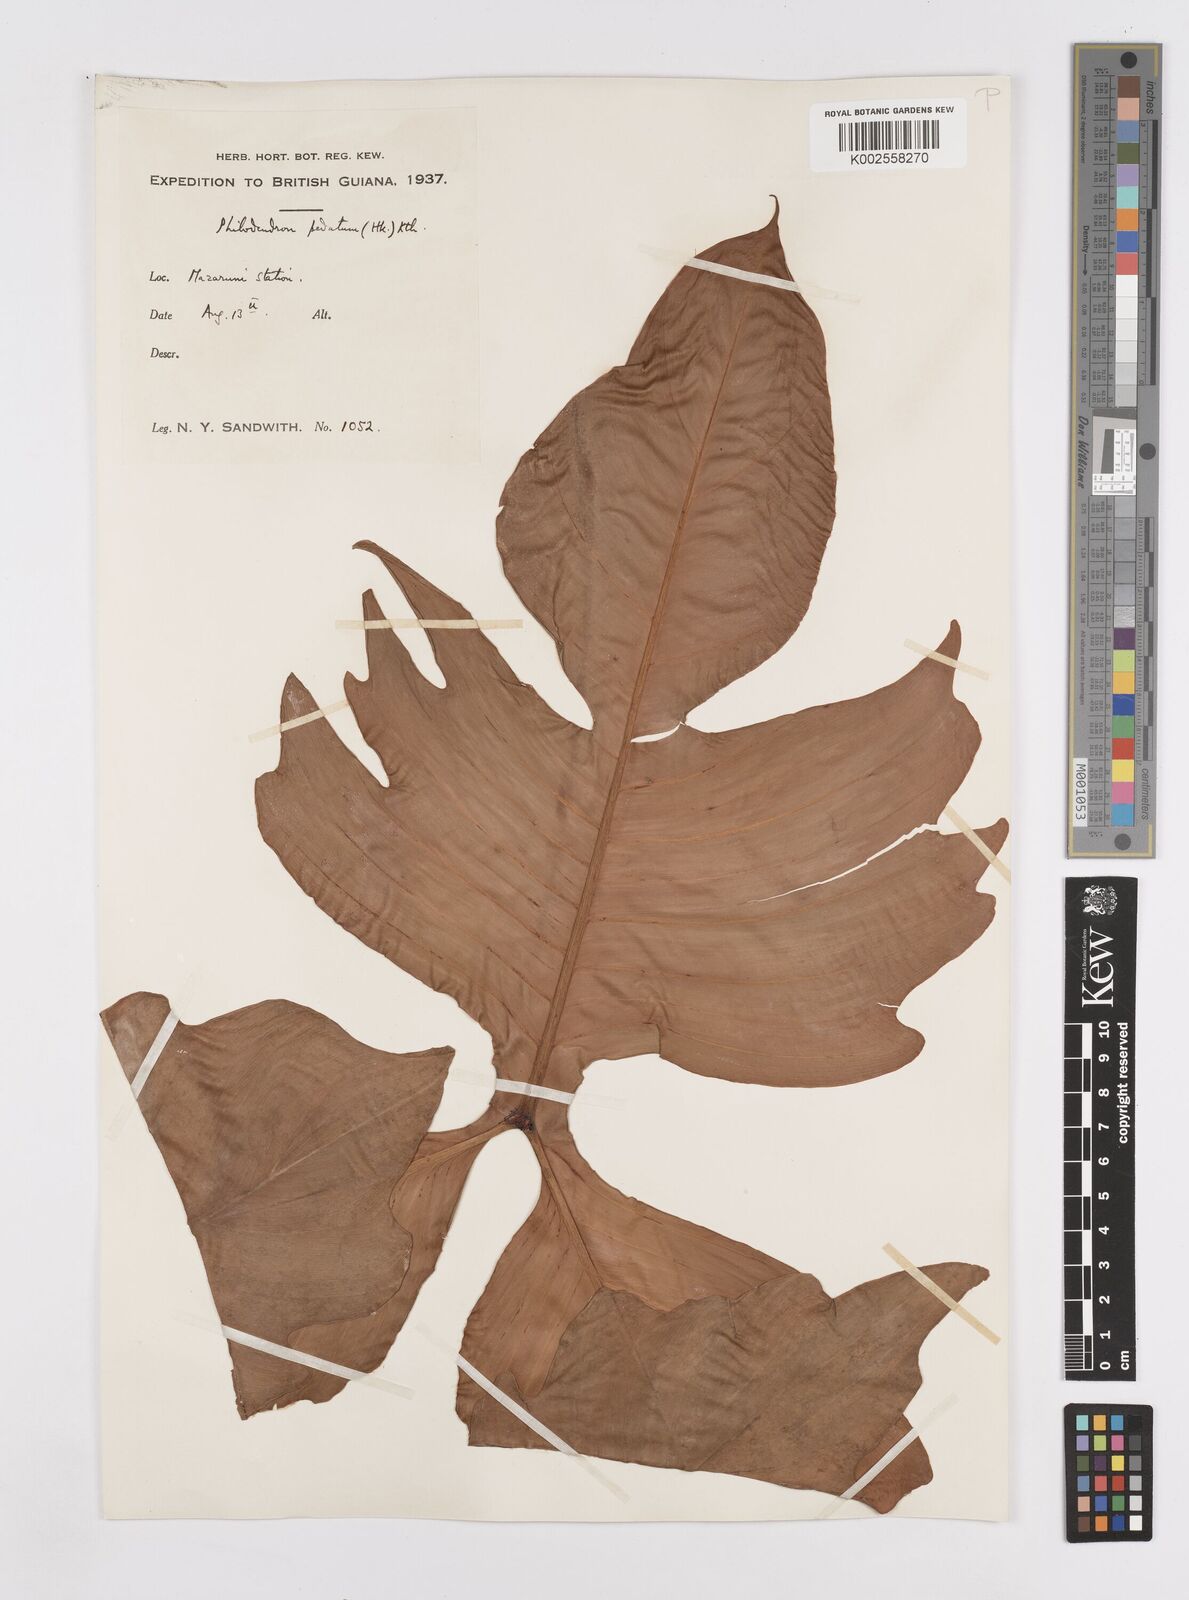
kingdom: Plantae
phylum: Tracheophyta
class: Liliopsida
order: Alismatales
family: Araceae
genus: Philodendron
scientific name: Philodendron pedatum
